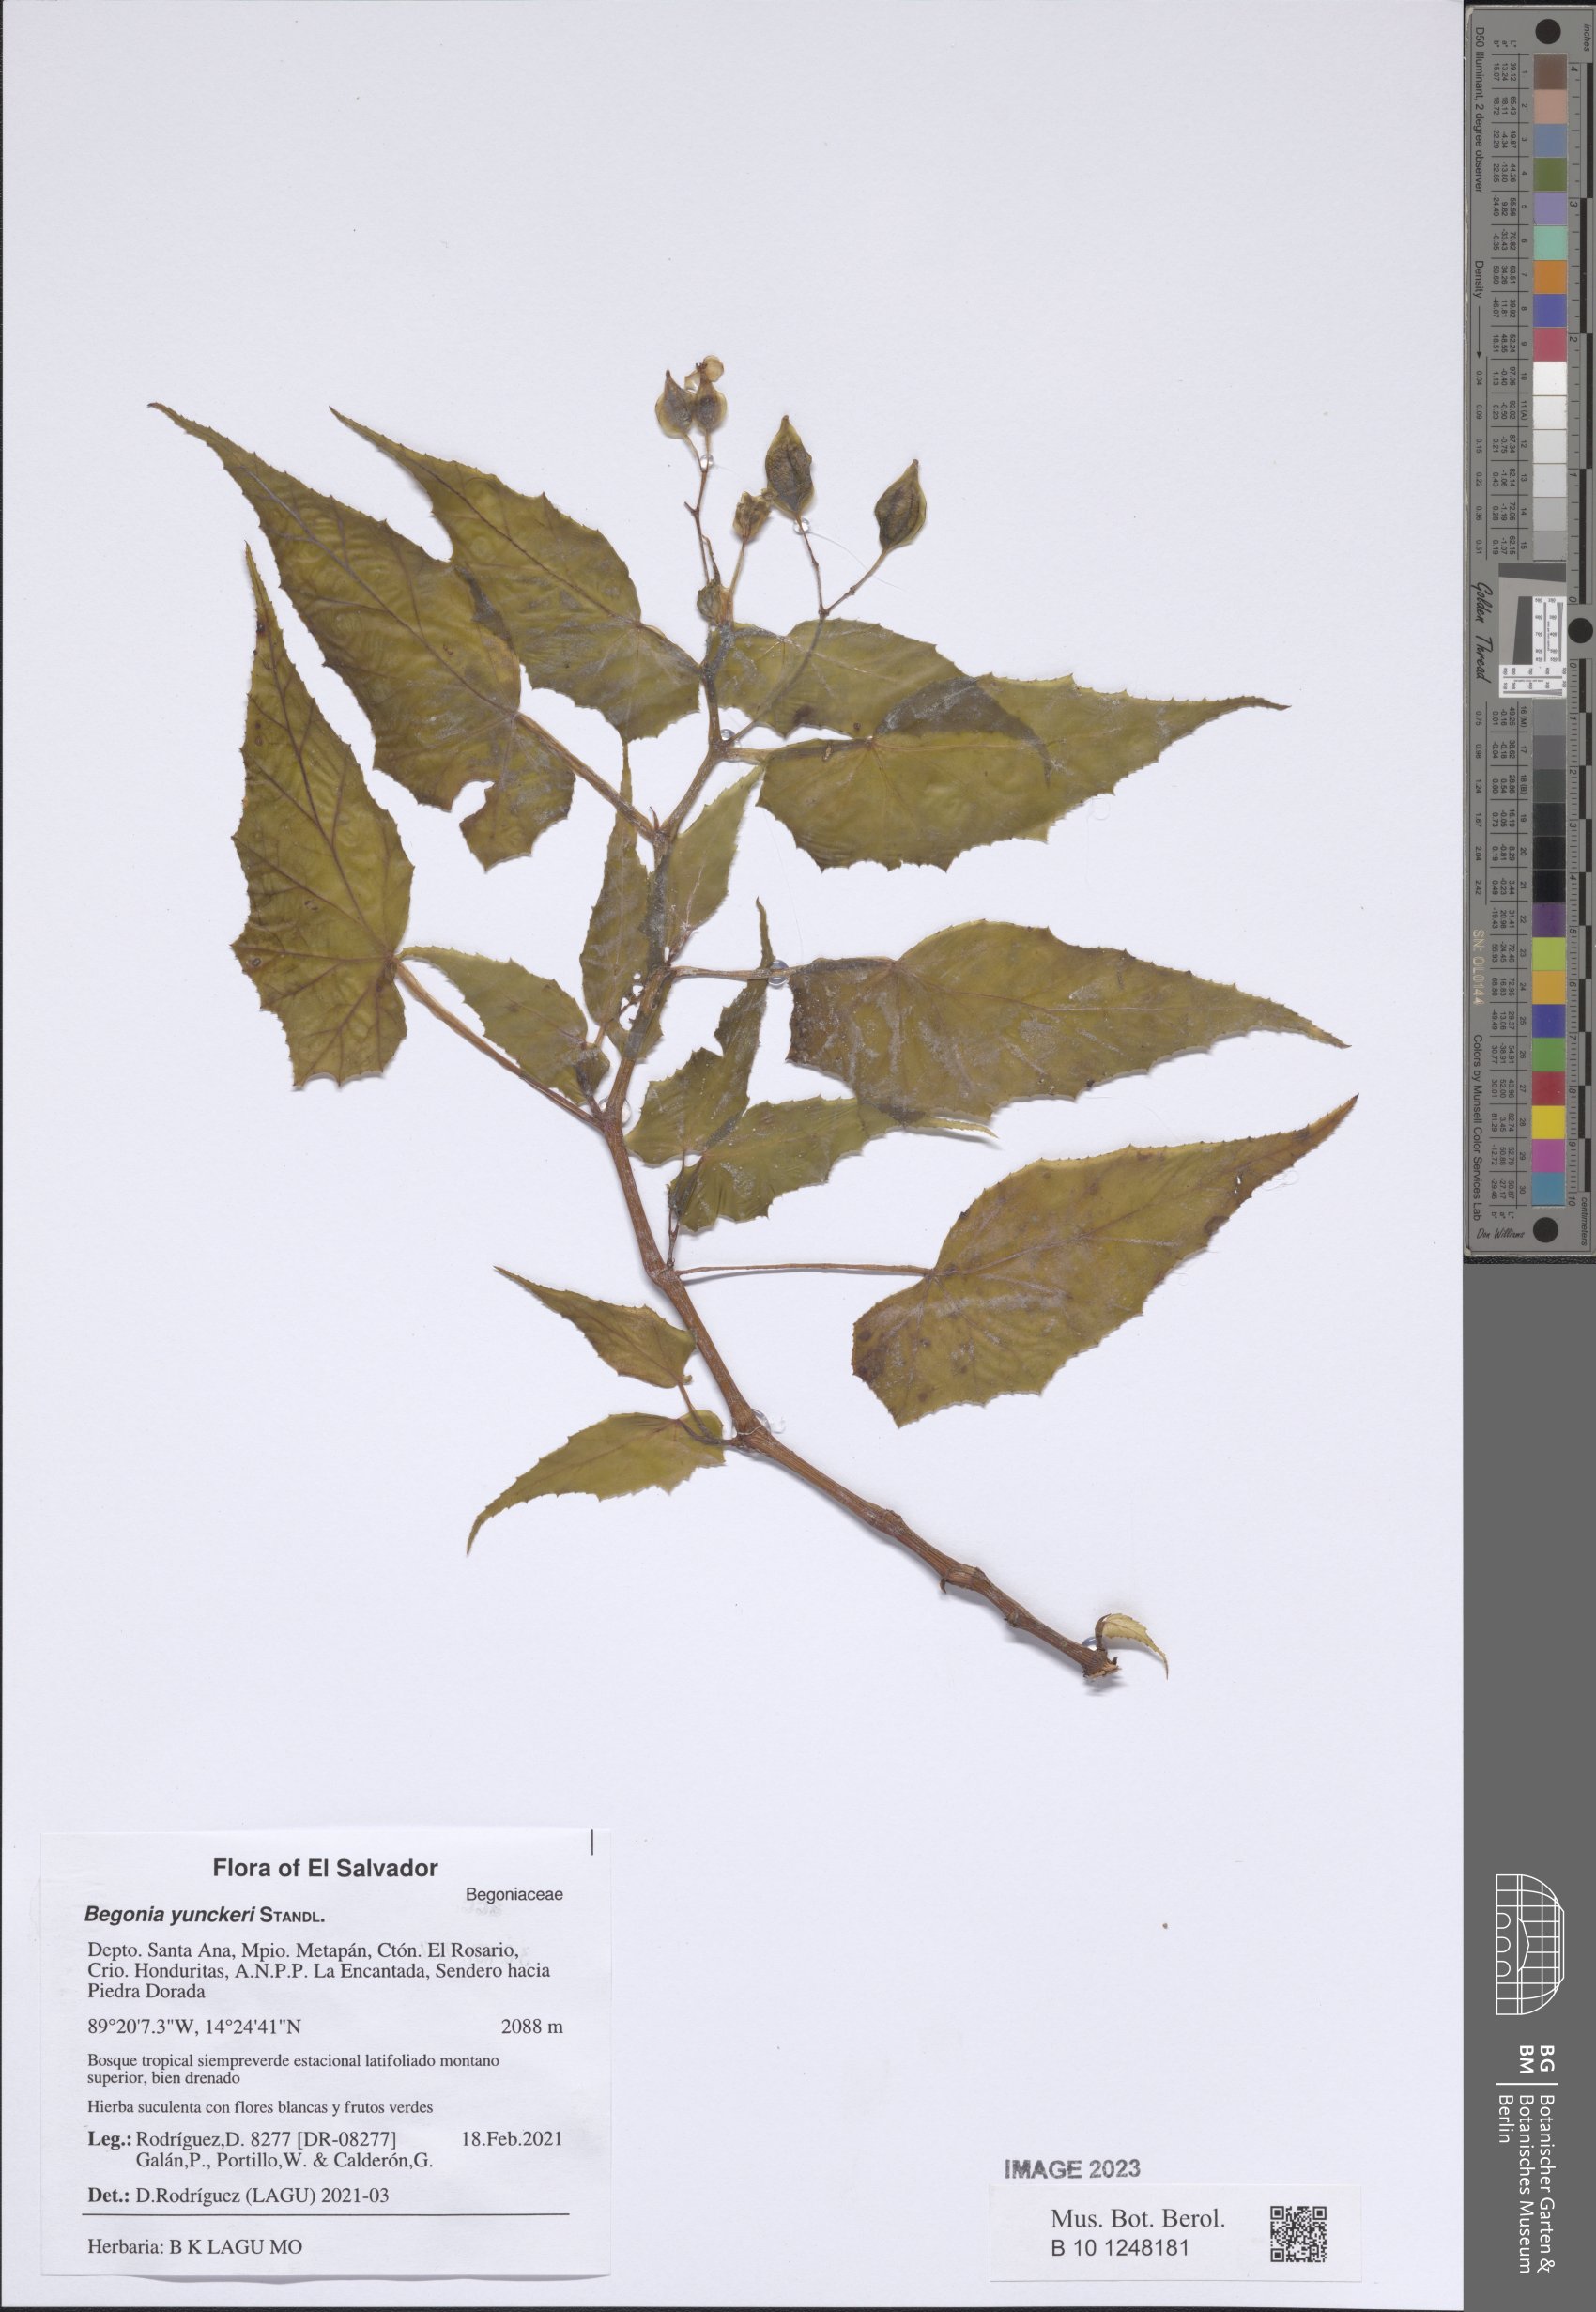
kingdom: Plantae
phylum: Tracheophyta
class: Magnoliopsida
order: Cucurbitales
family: Begoniaceae
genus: Begonia
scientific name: Begonia yunckeri
